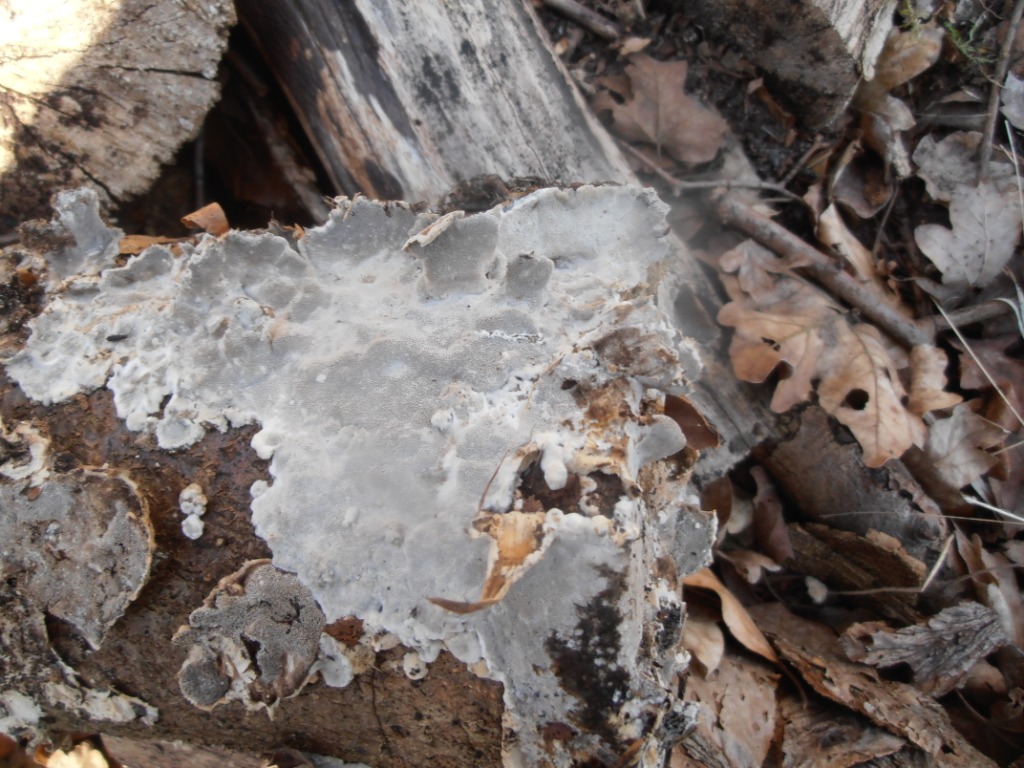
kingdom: Fungi
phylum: Basidiomycota
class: Agaricomycetes
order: Polyporales
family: Phanerochaetaceae
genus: Bjerkandera
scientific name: Bjerkandera adusta
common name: sveden sodporesvamp
